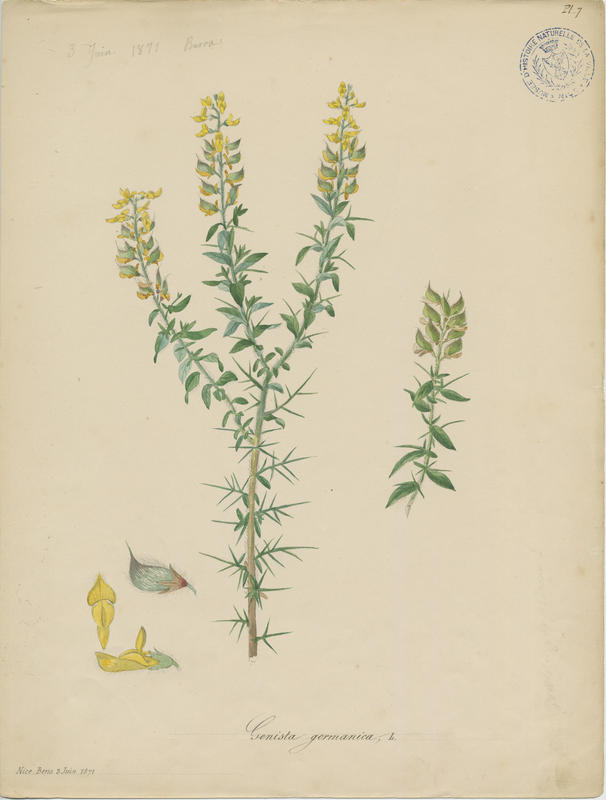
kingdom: Plantae
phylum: Tracheophyta
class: Magnoliopsida
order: Fabales
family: Fabaceae
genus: Genista
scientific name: Genista germanica
